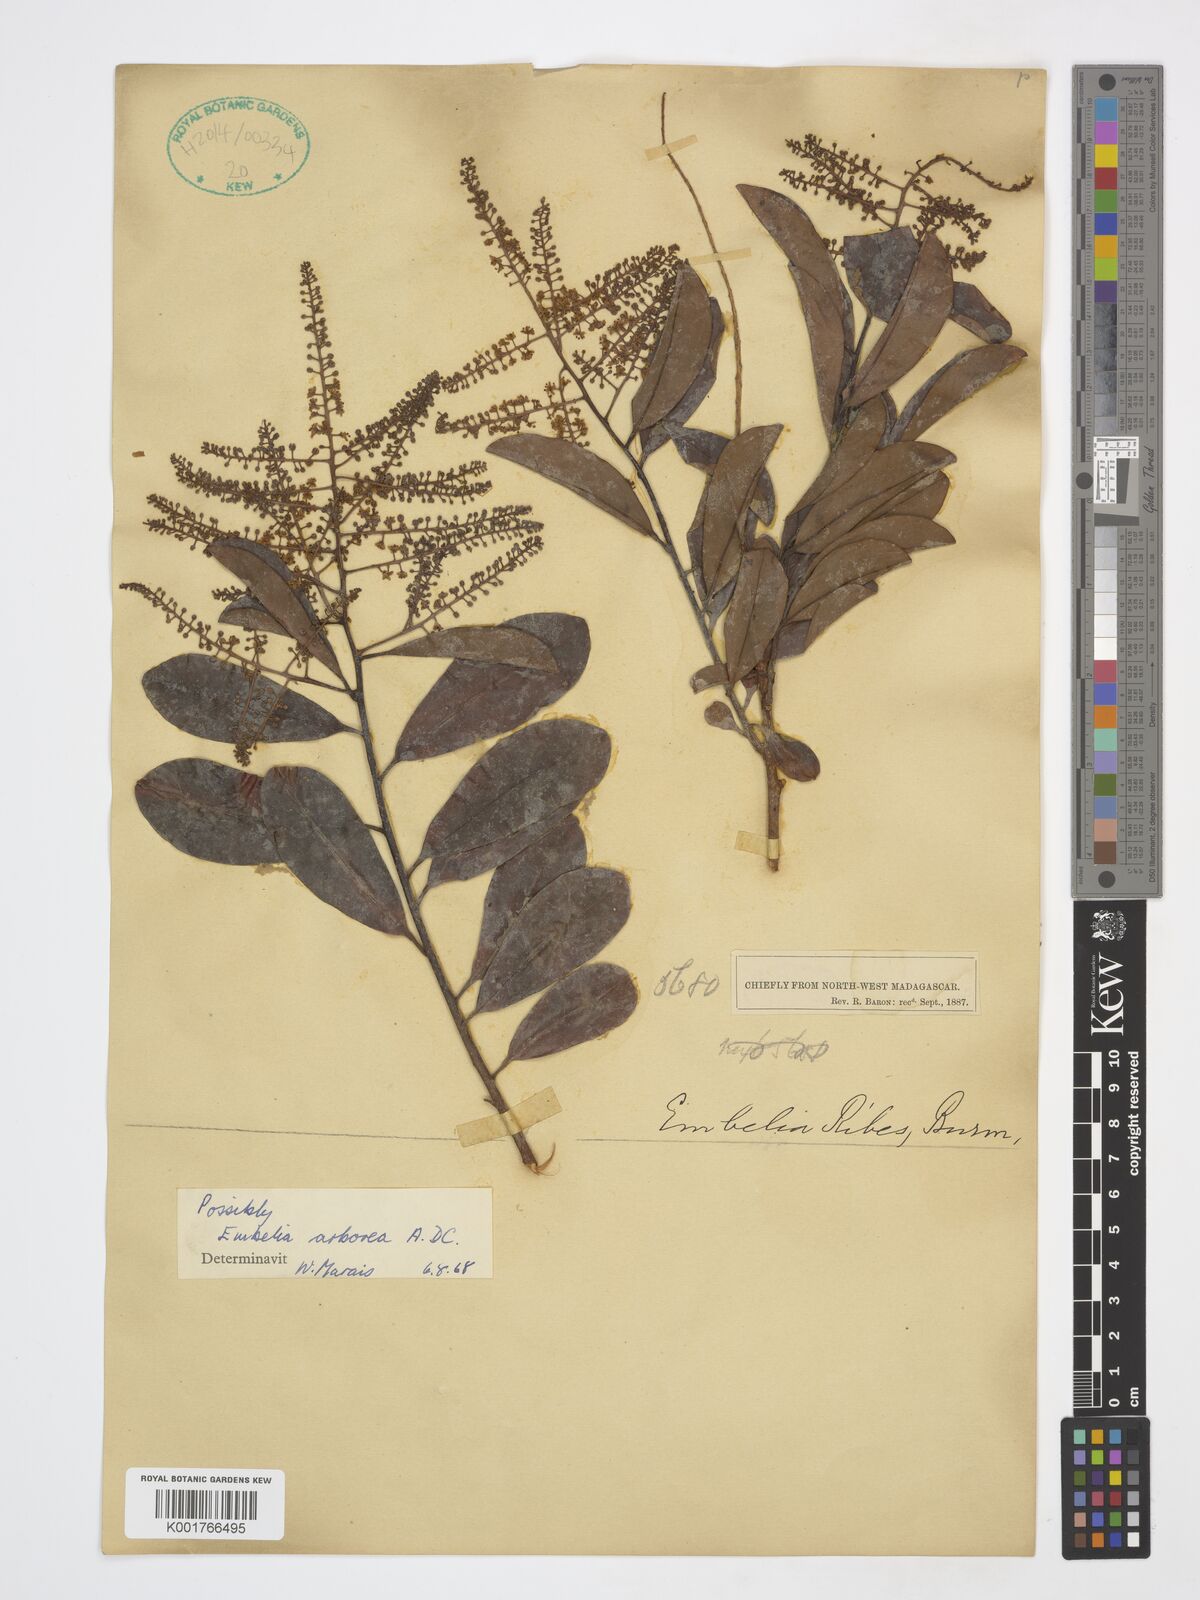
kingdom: Plantae
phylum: Tracheophyta
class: Magnoliopsida
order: Ericales
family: Primulaceae
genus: Embelia
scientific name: Embelia arborea
